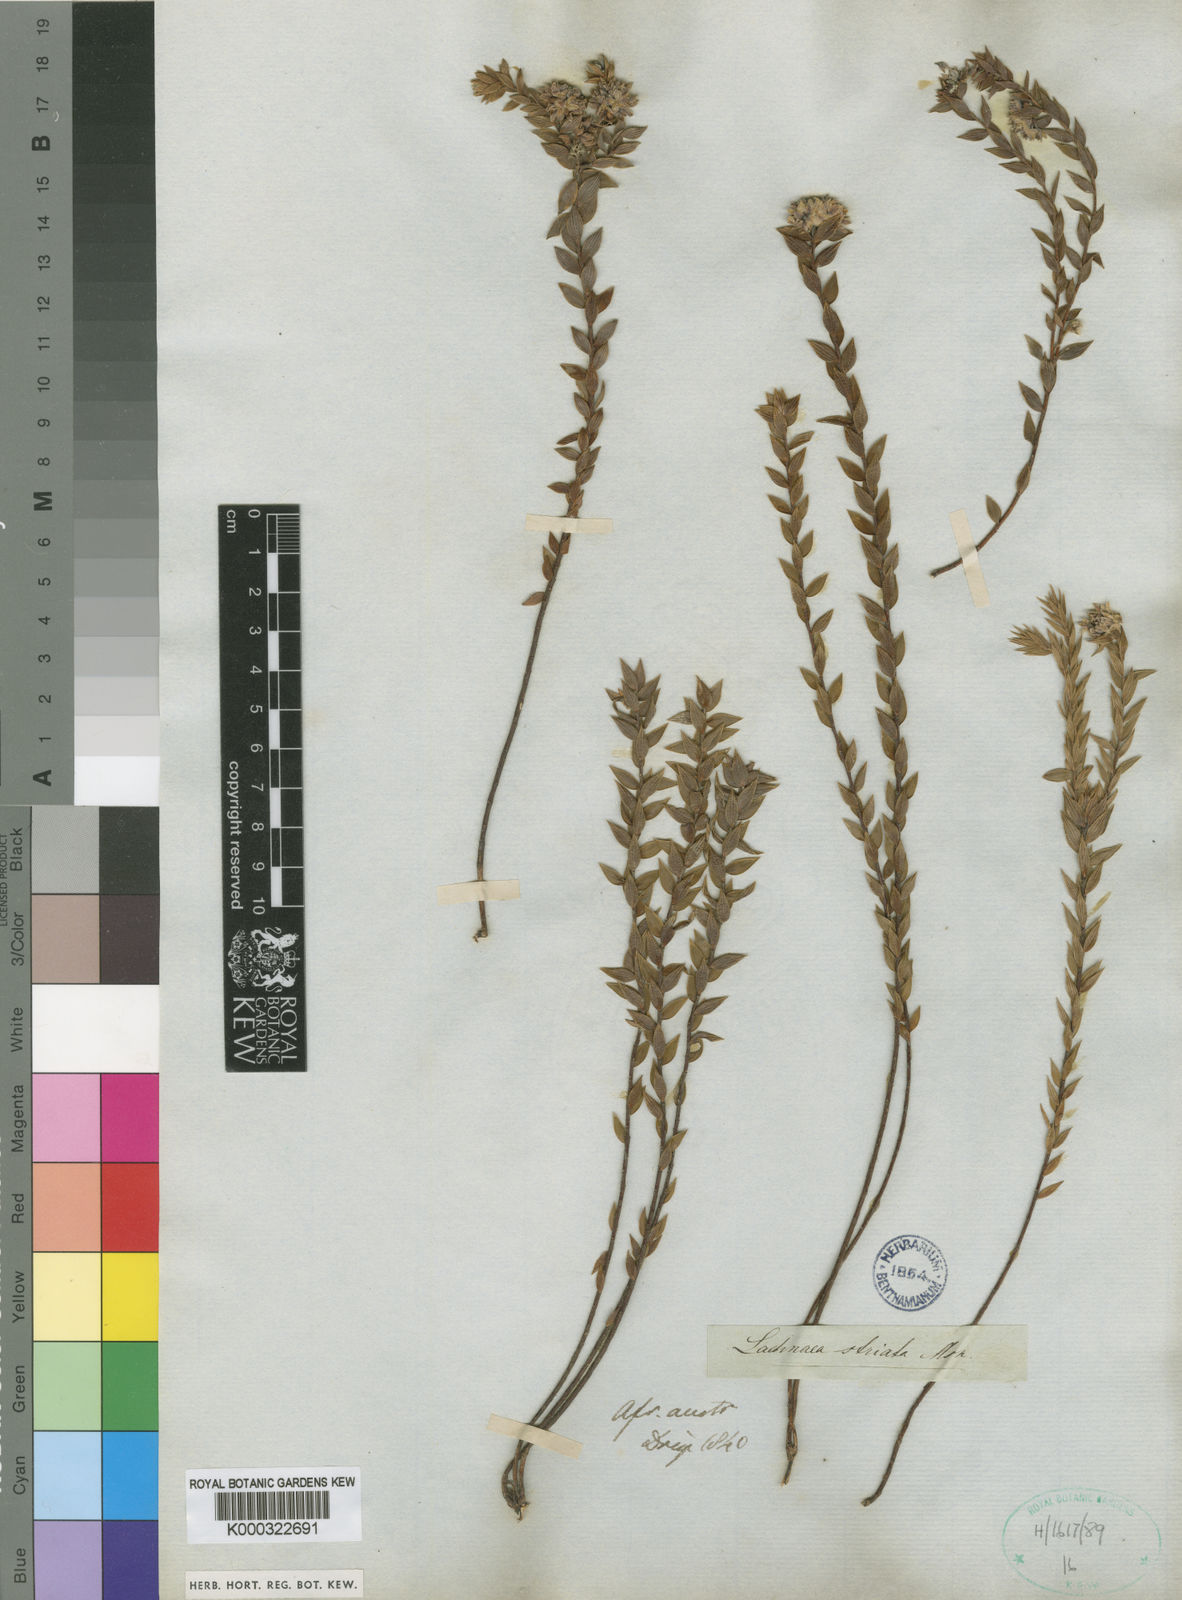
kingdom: Plantae
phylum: Tracheophyta
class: Magnoliopsida
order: Malvales
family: Thymelaeaceae
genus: Lachnaea
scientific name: Lachnaea striata
